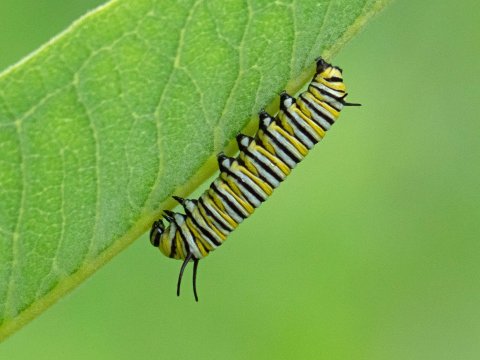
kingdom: Animalia
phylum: Arthropoda
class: Insecta
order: Lepidoptera
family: Nymphalidae
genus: Danaus
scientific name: Danaus plexippus
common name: Monarch
